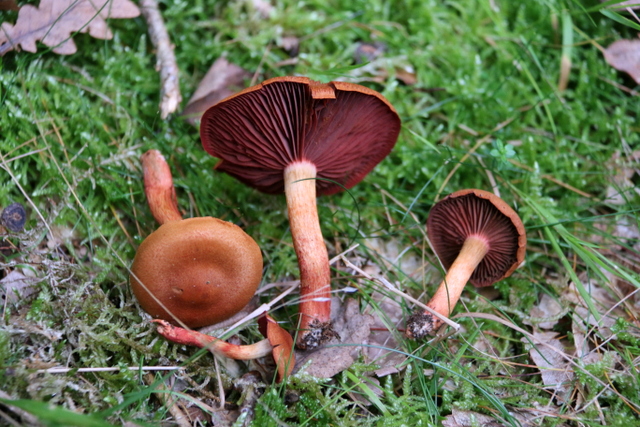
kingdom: Fungi
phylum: Basidiomycota
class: Agaricomycetes
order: Agaricales
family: Cortinariaceae
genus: Cortinarius
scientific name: Cortinarius purpureus
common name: brunrød slørhat
